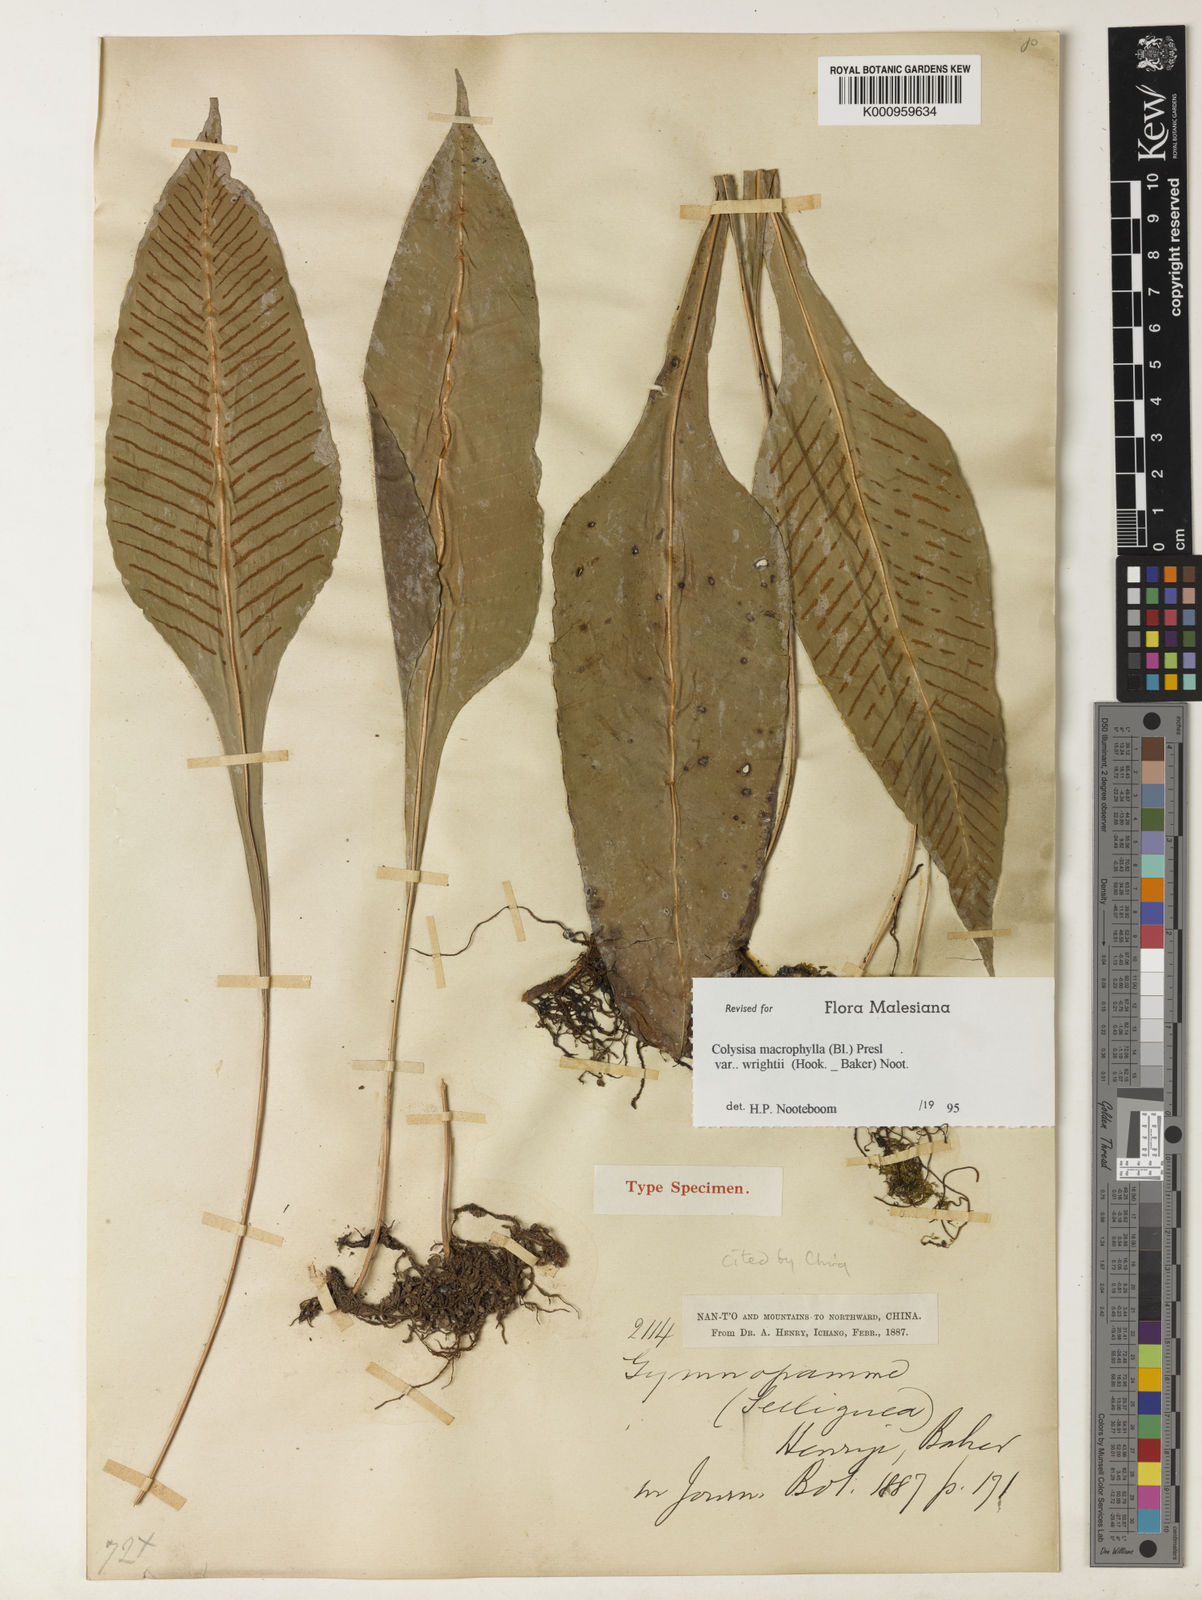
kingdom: Plantae
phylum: Tracheophyta
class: Polypodiopsida
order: Polypodiales
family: Polypodiaceae
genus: Leptochilus
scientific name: Leptochilus henryi
